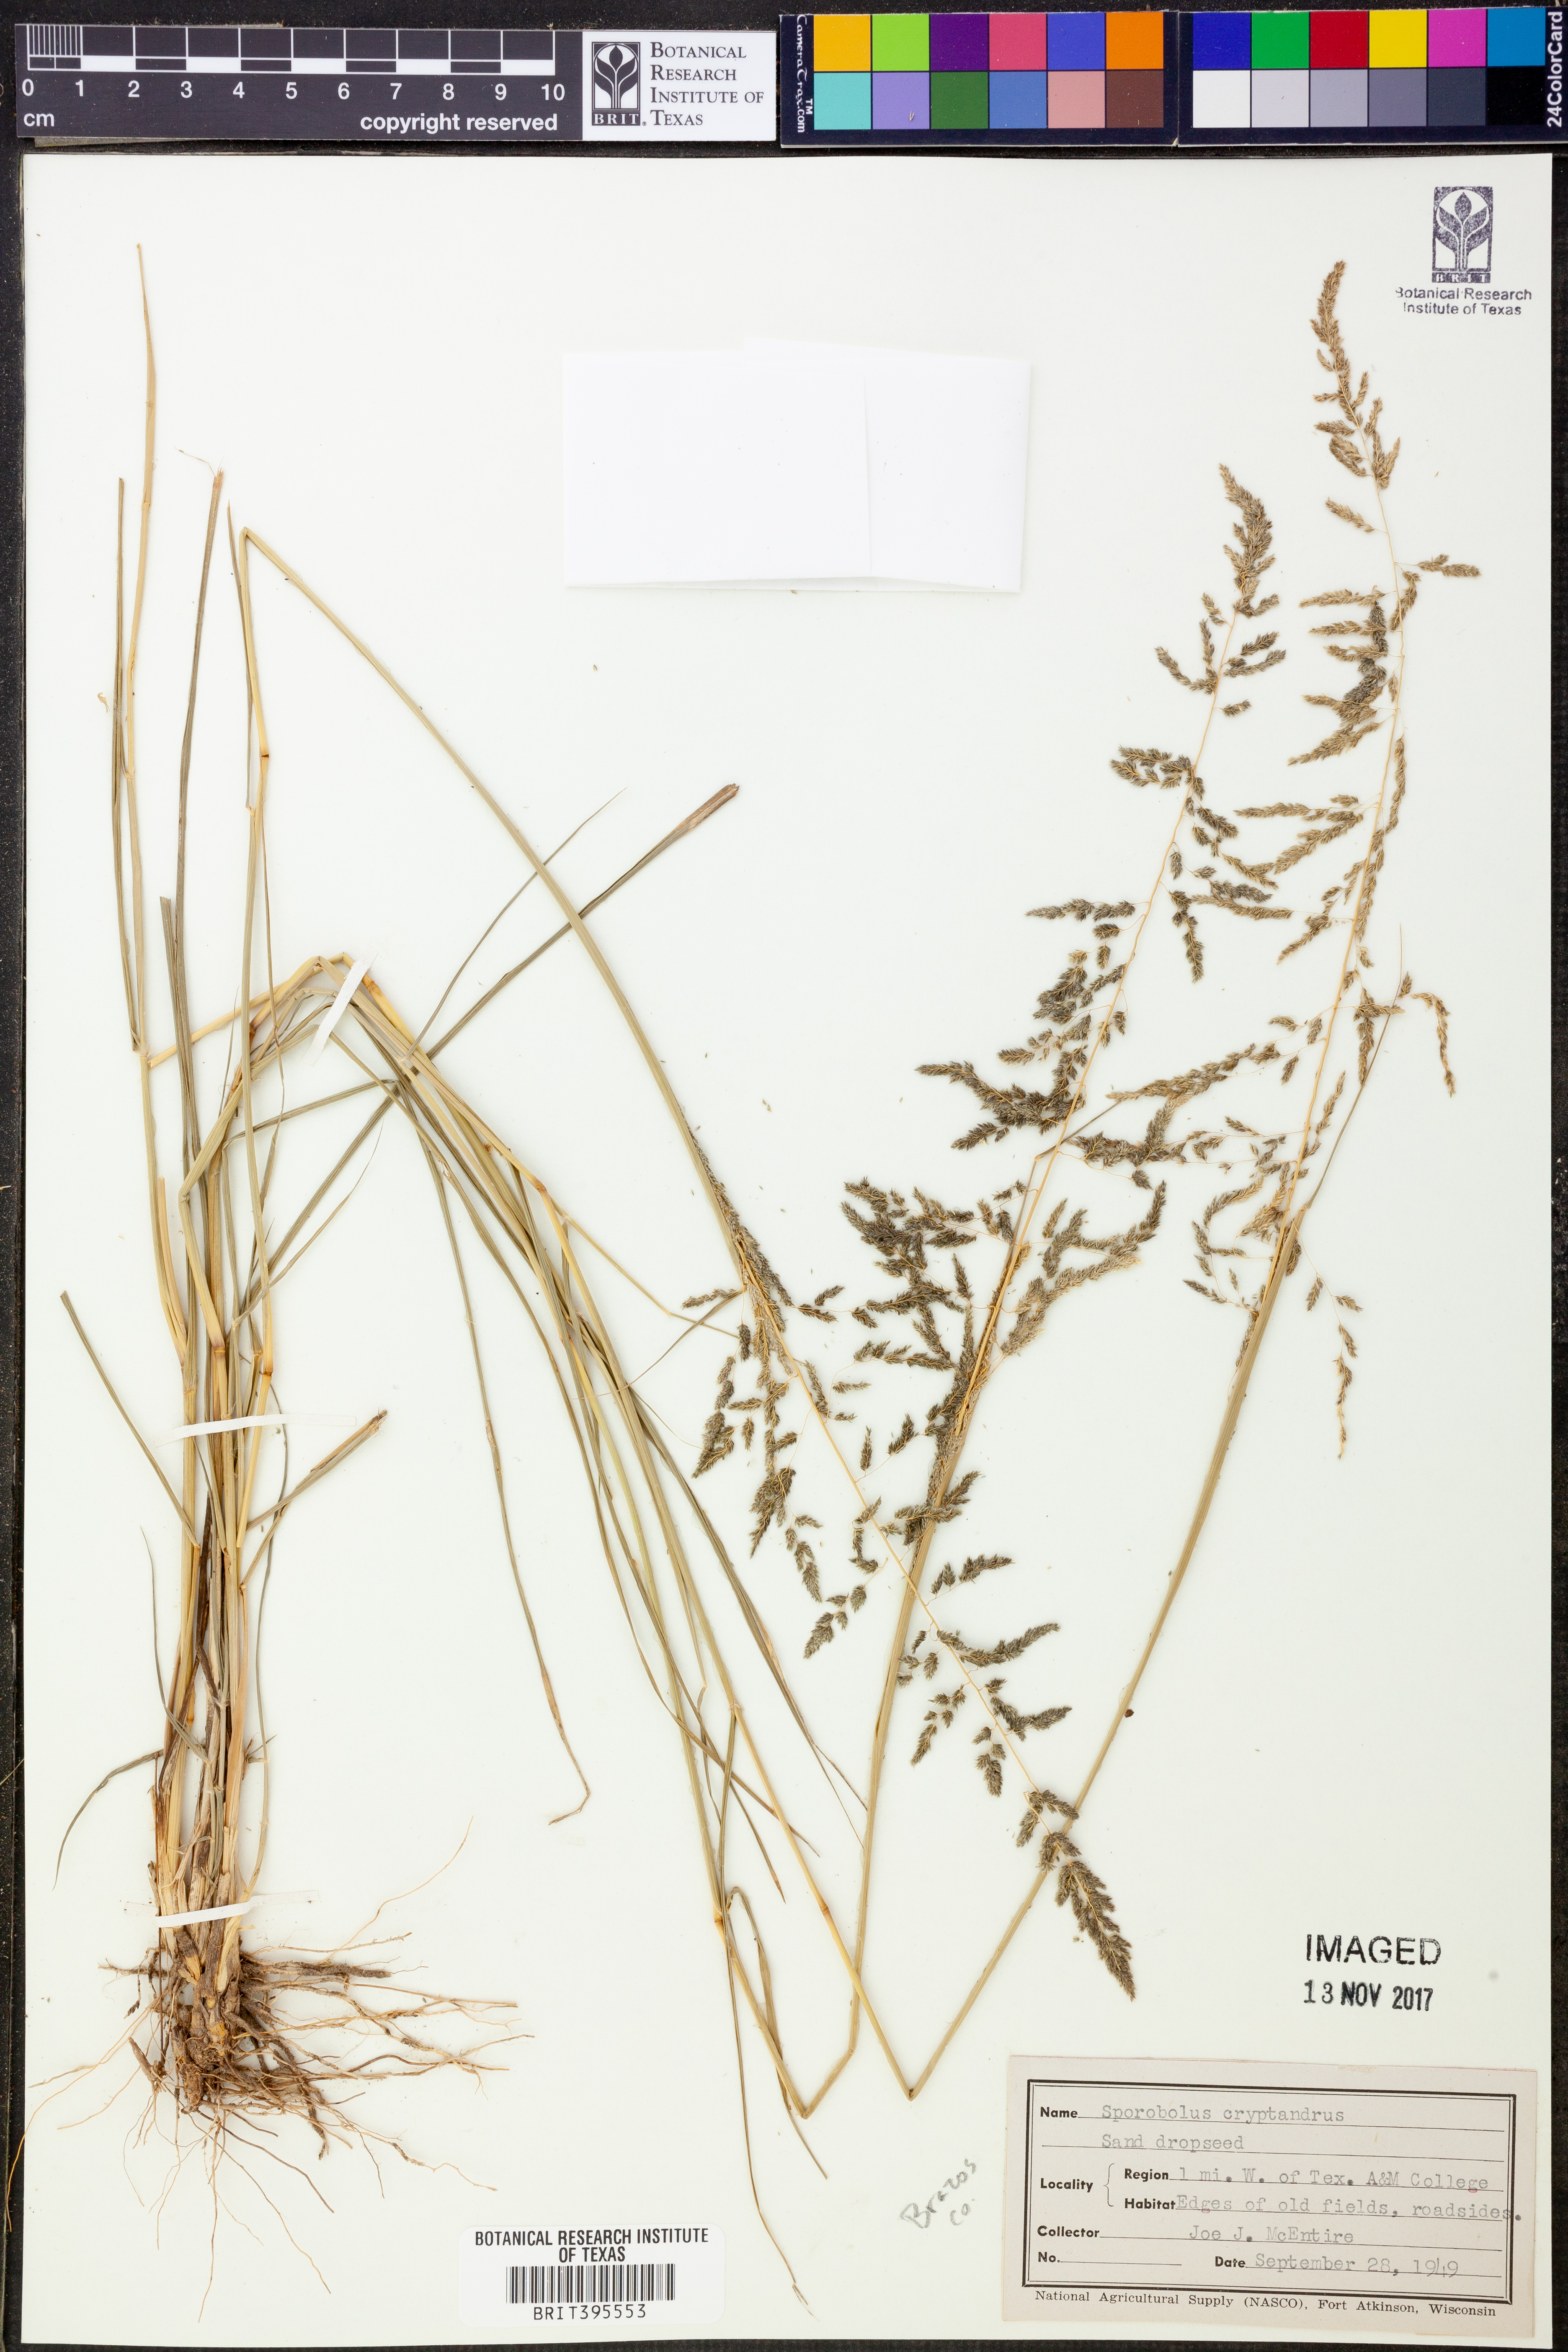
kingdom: Plantae
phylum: Tracheophyta
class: Liliopsida
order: Poales
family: Poaceae
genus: Sporobolus
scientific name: Sporobolus cryptandrus
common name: Sand dropseed
